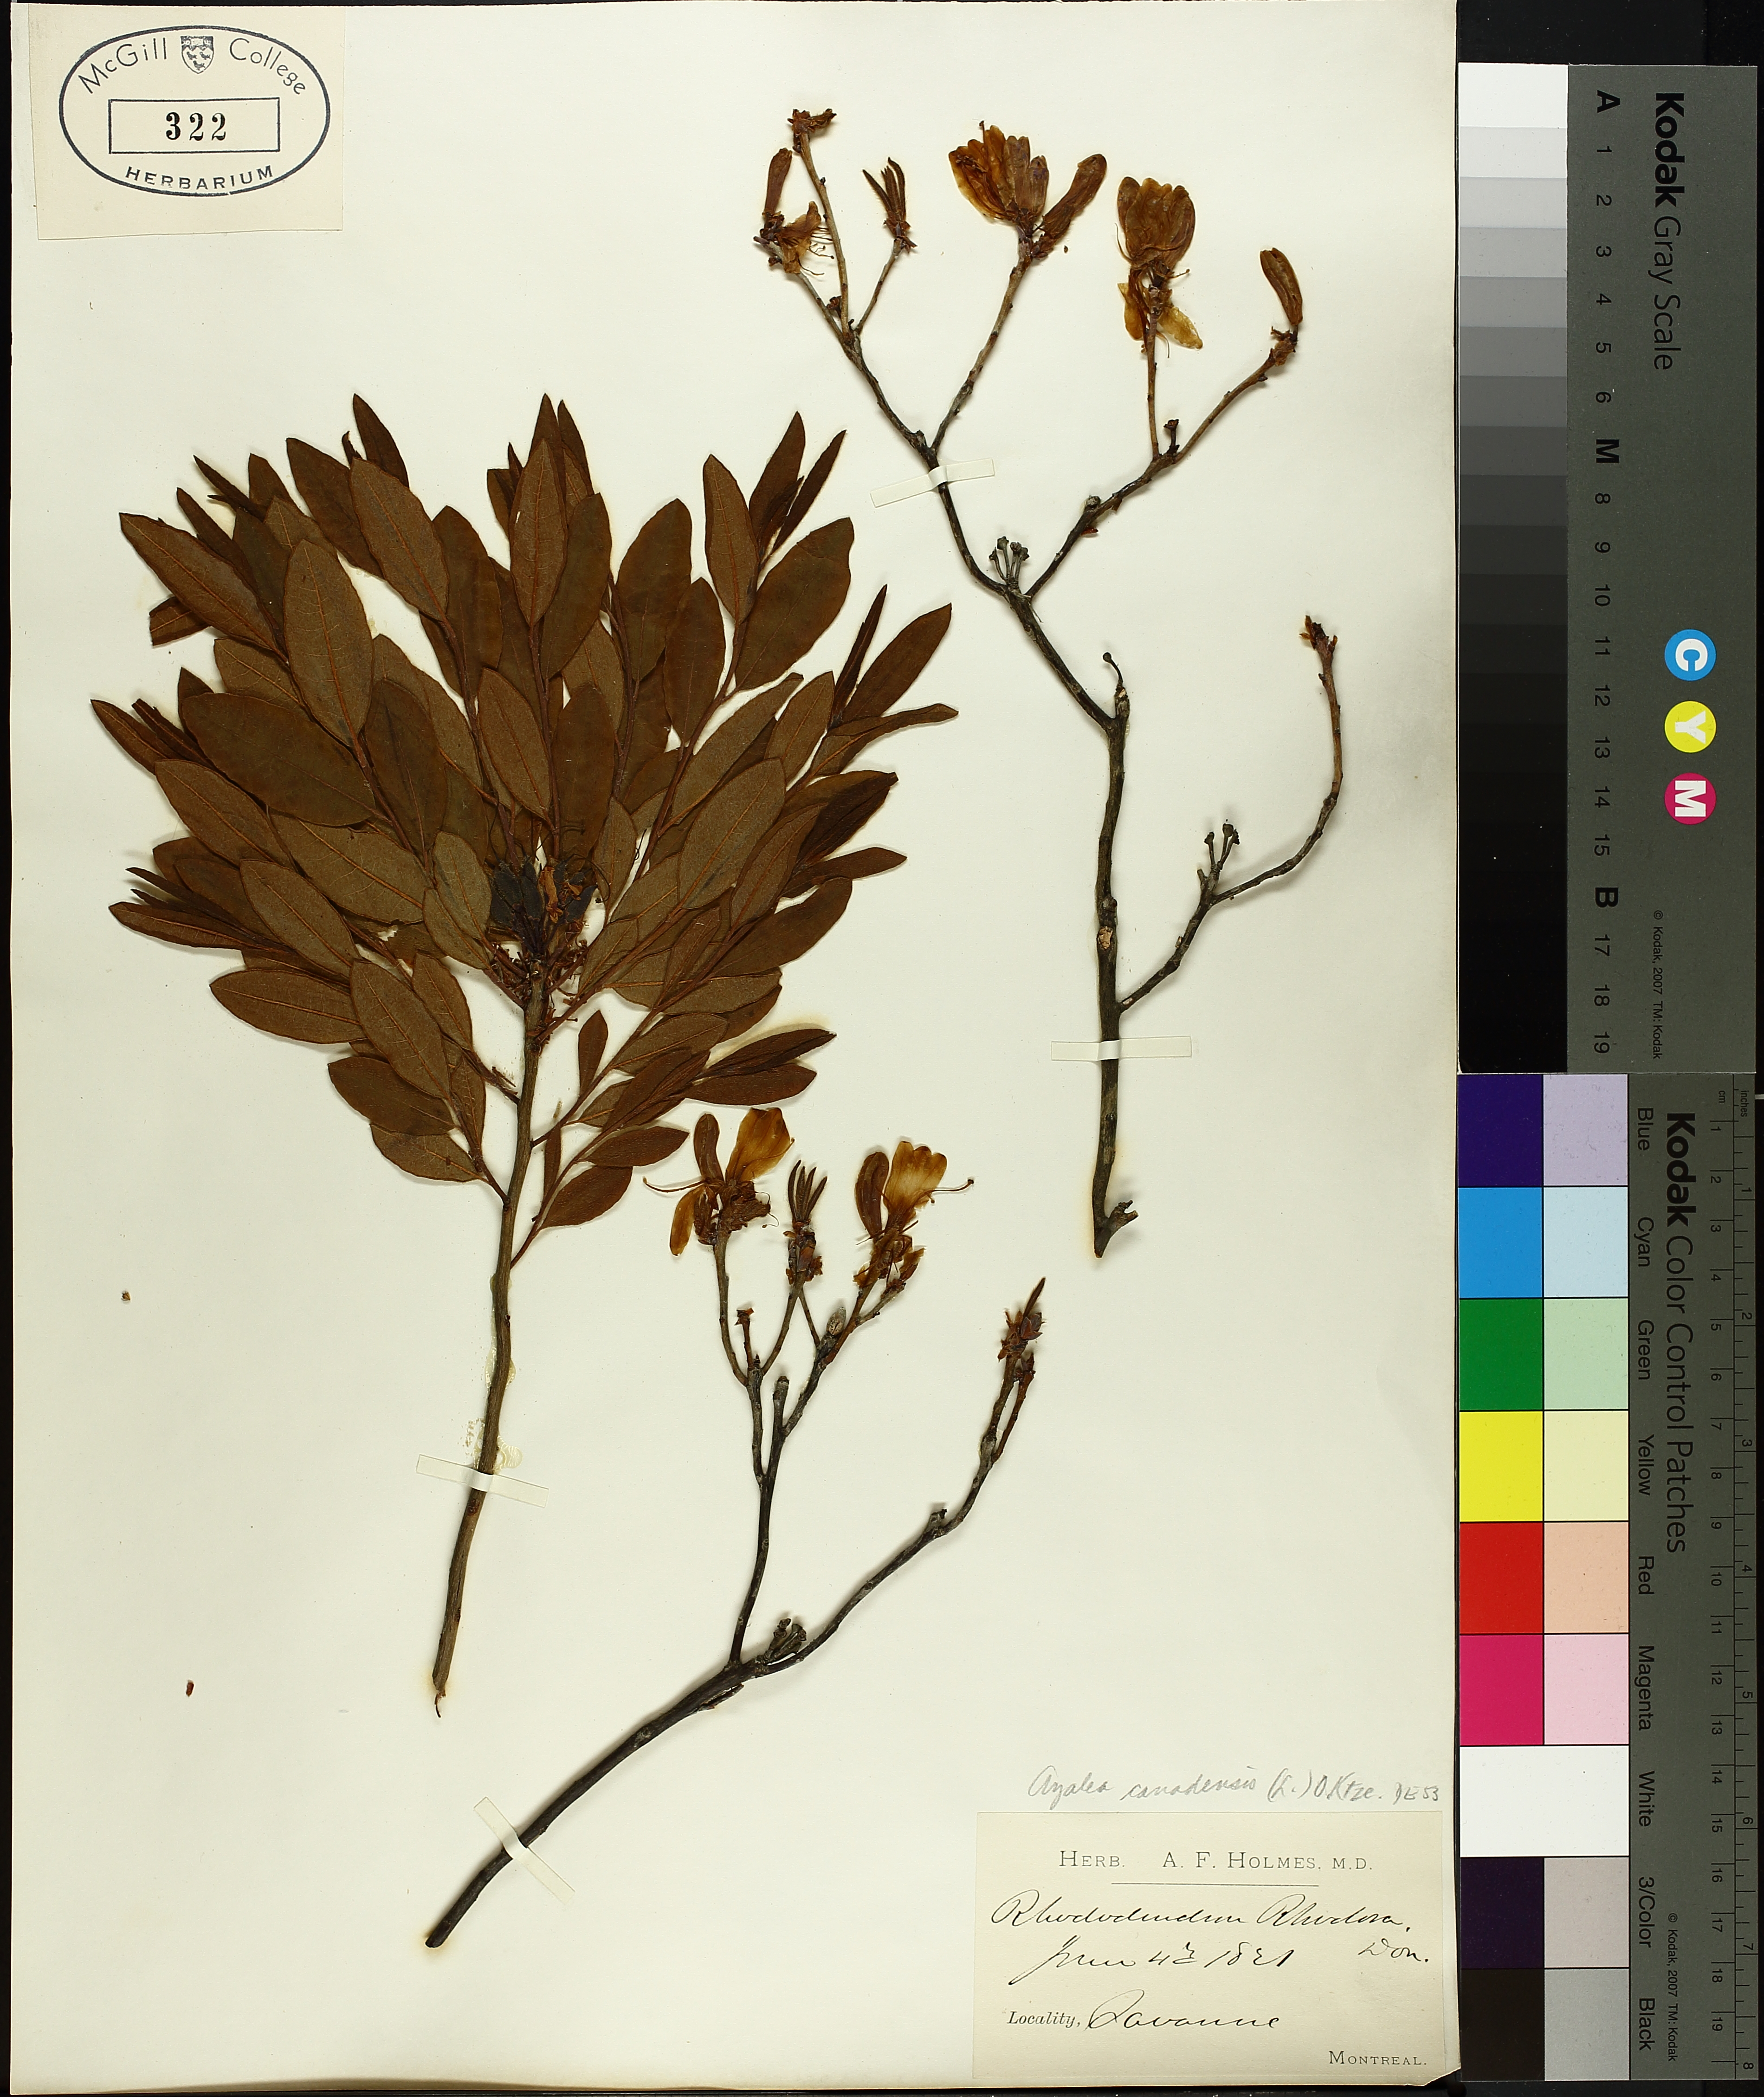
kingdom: Plantae
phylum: Tracheophyta
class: Magnoliopsida
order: Ericales
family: Ericaceae
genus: Rhododendron
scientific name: Rhododendron canadense
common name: Rhodora
